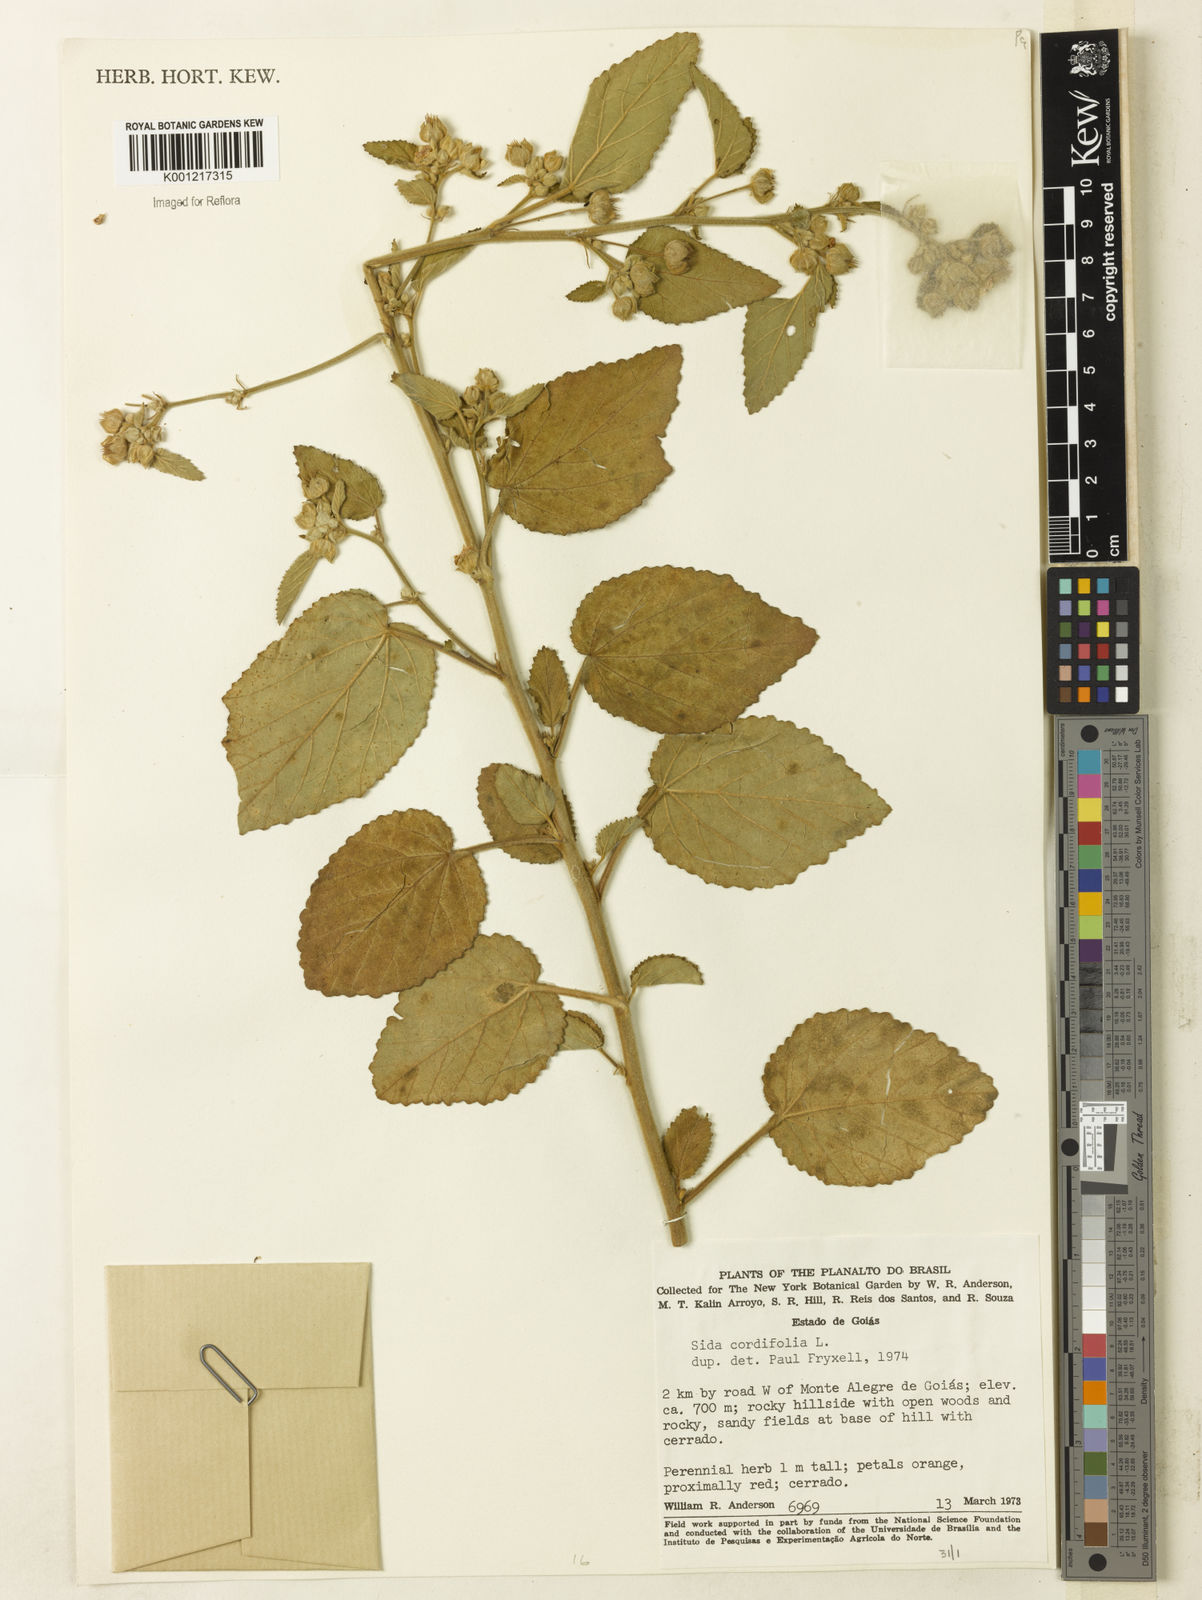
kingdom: Plantae
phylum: Tracheophyta
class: Magnoliopsida
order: Malvales
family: Malvaceae
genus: Sida
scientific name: Sida cordifolia
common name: Ilima
